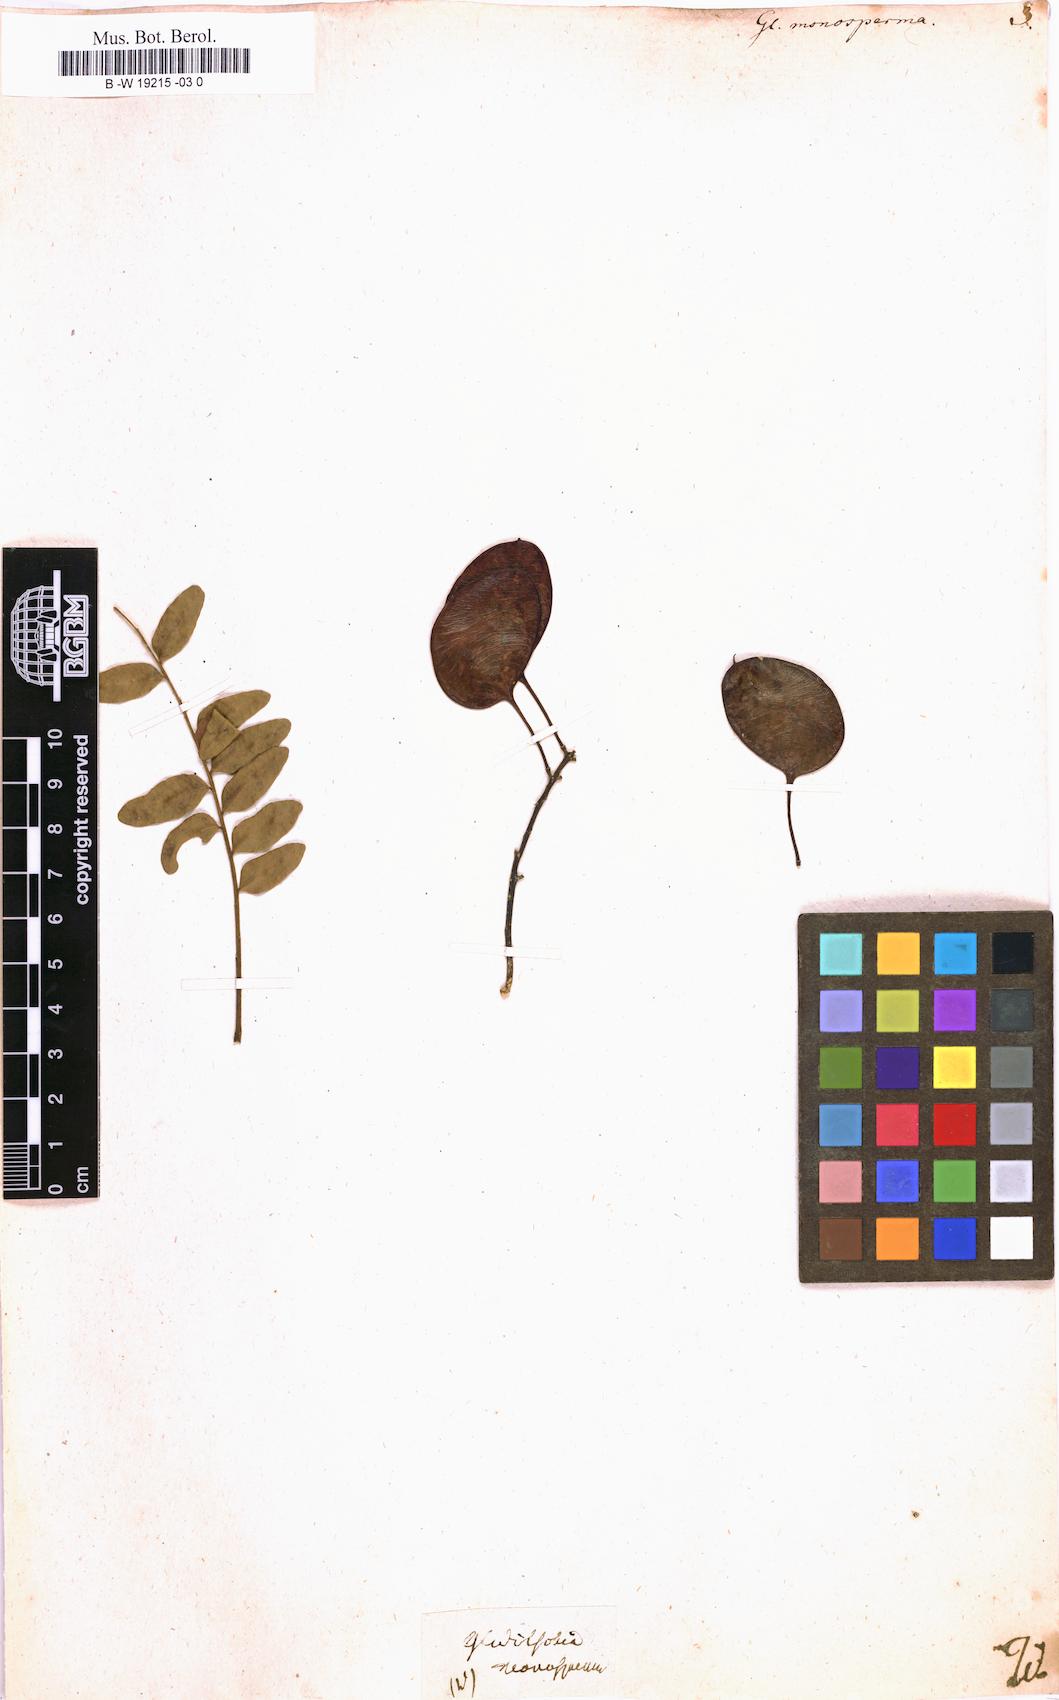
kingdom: Plantae
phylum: Tracheophyta
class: Magnoliopsida
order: Fabales
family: Fabaceae
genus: Gleditsia
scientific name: Gleditsia aquatica
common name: Swamp-locust
